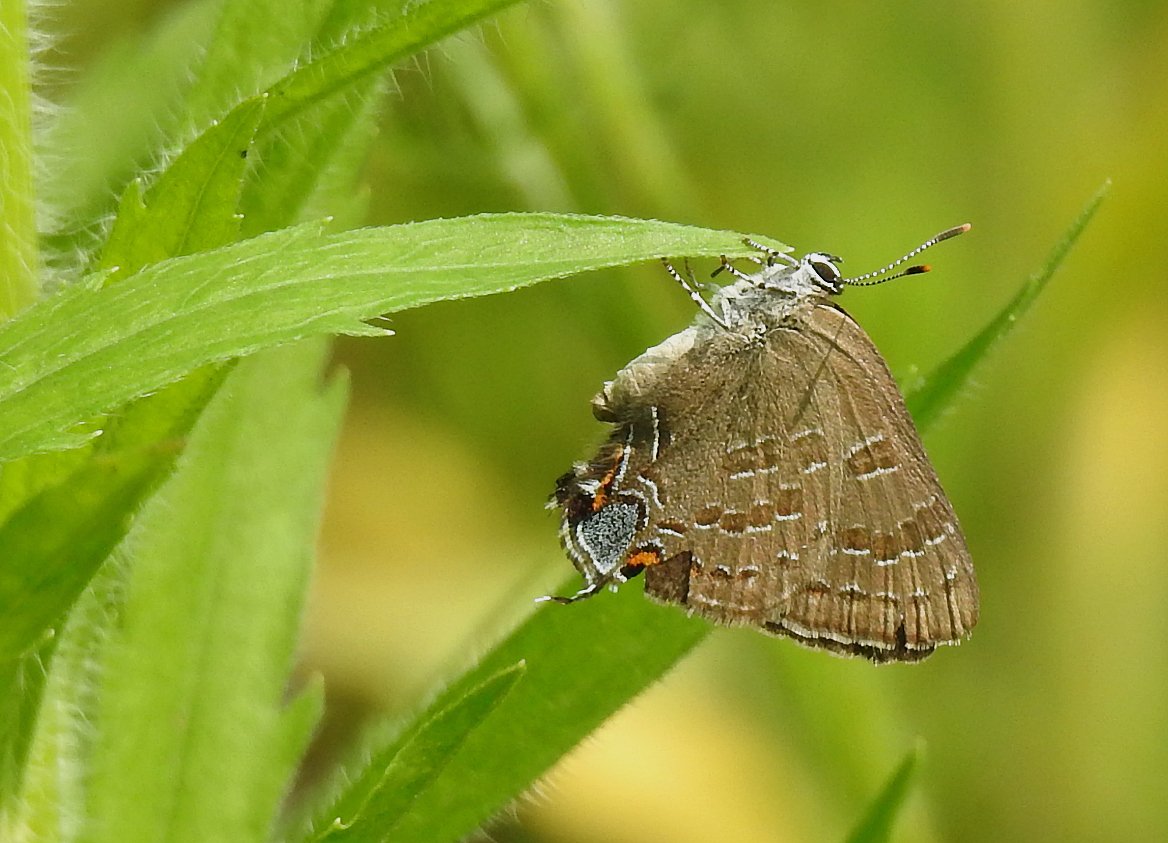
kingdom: Animalia
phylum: Arthropoda
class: Insecta
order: Lepidoptera
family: Lycaenidae
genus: Strymon
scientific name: Strymon caryaevorus
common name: Hickory Hairstreak
